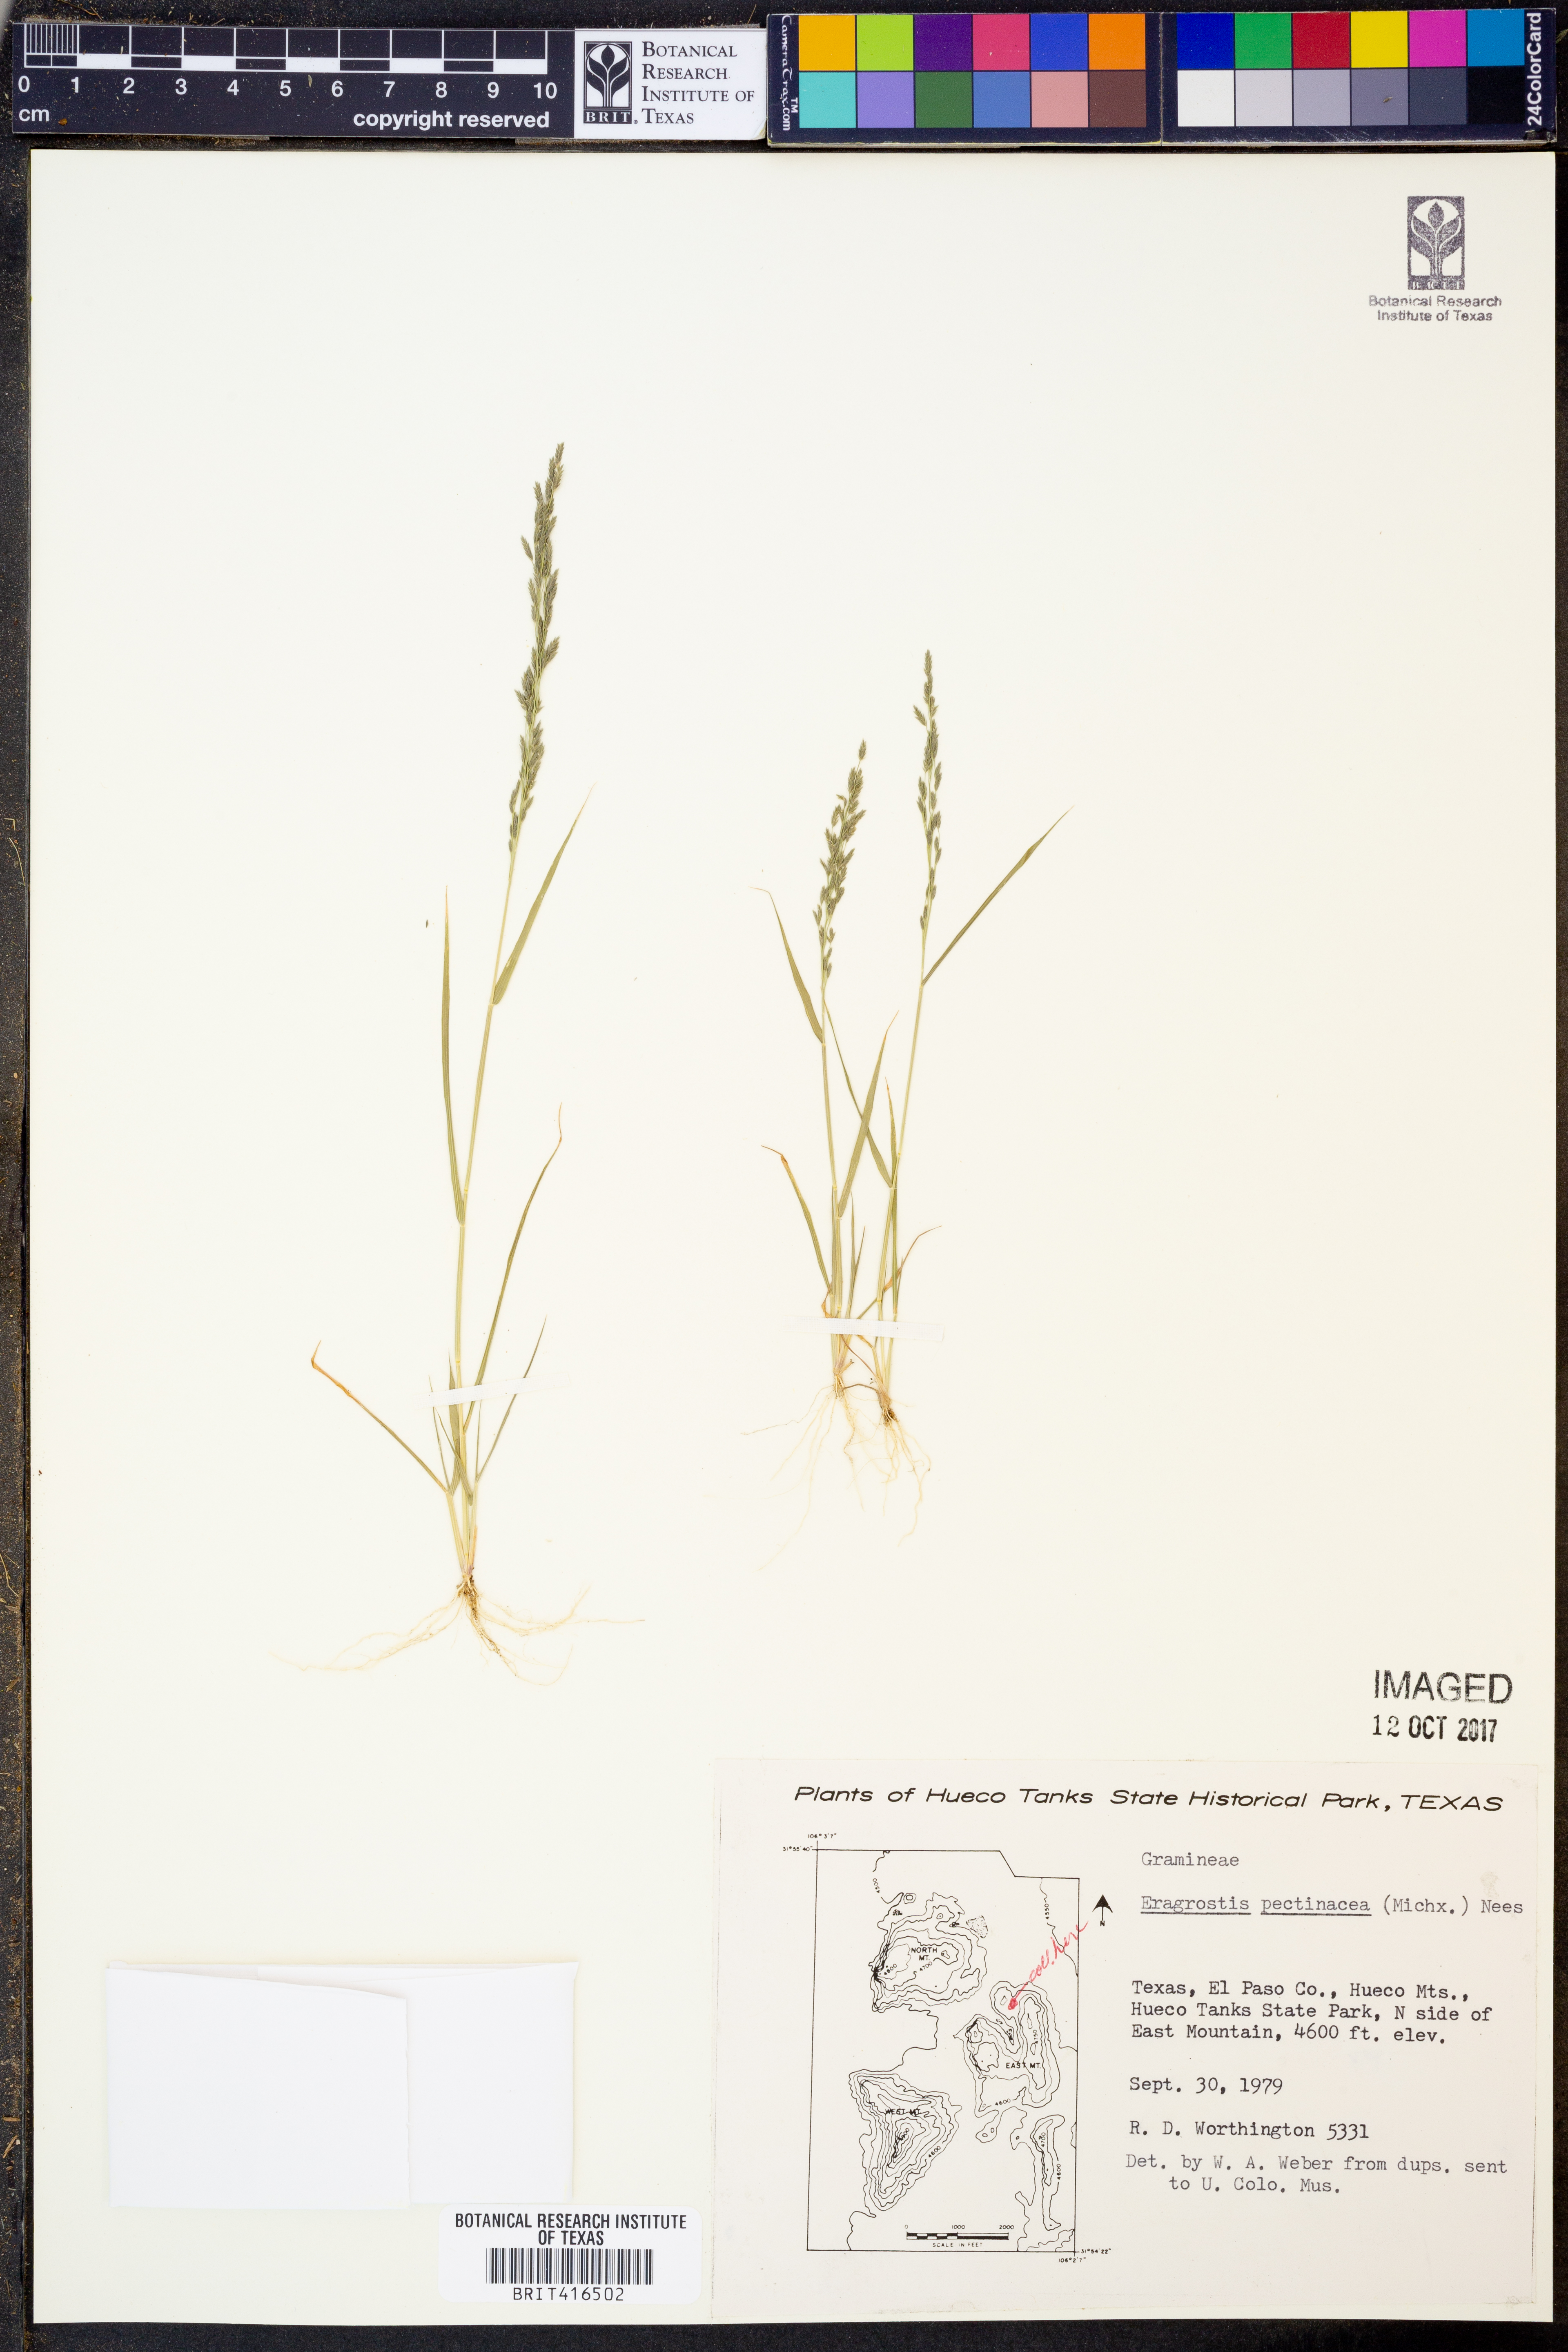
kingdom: Plantae
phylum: Tracheophyta
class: Liliopsida
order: Poales
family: Poaceae
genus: Eragrostis
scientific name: Eragrostis pectinacea
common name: Tufted lovegrass
